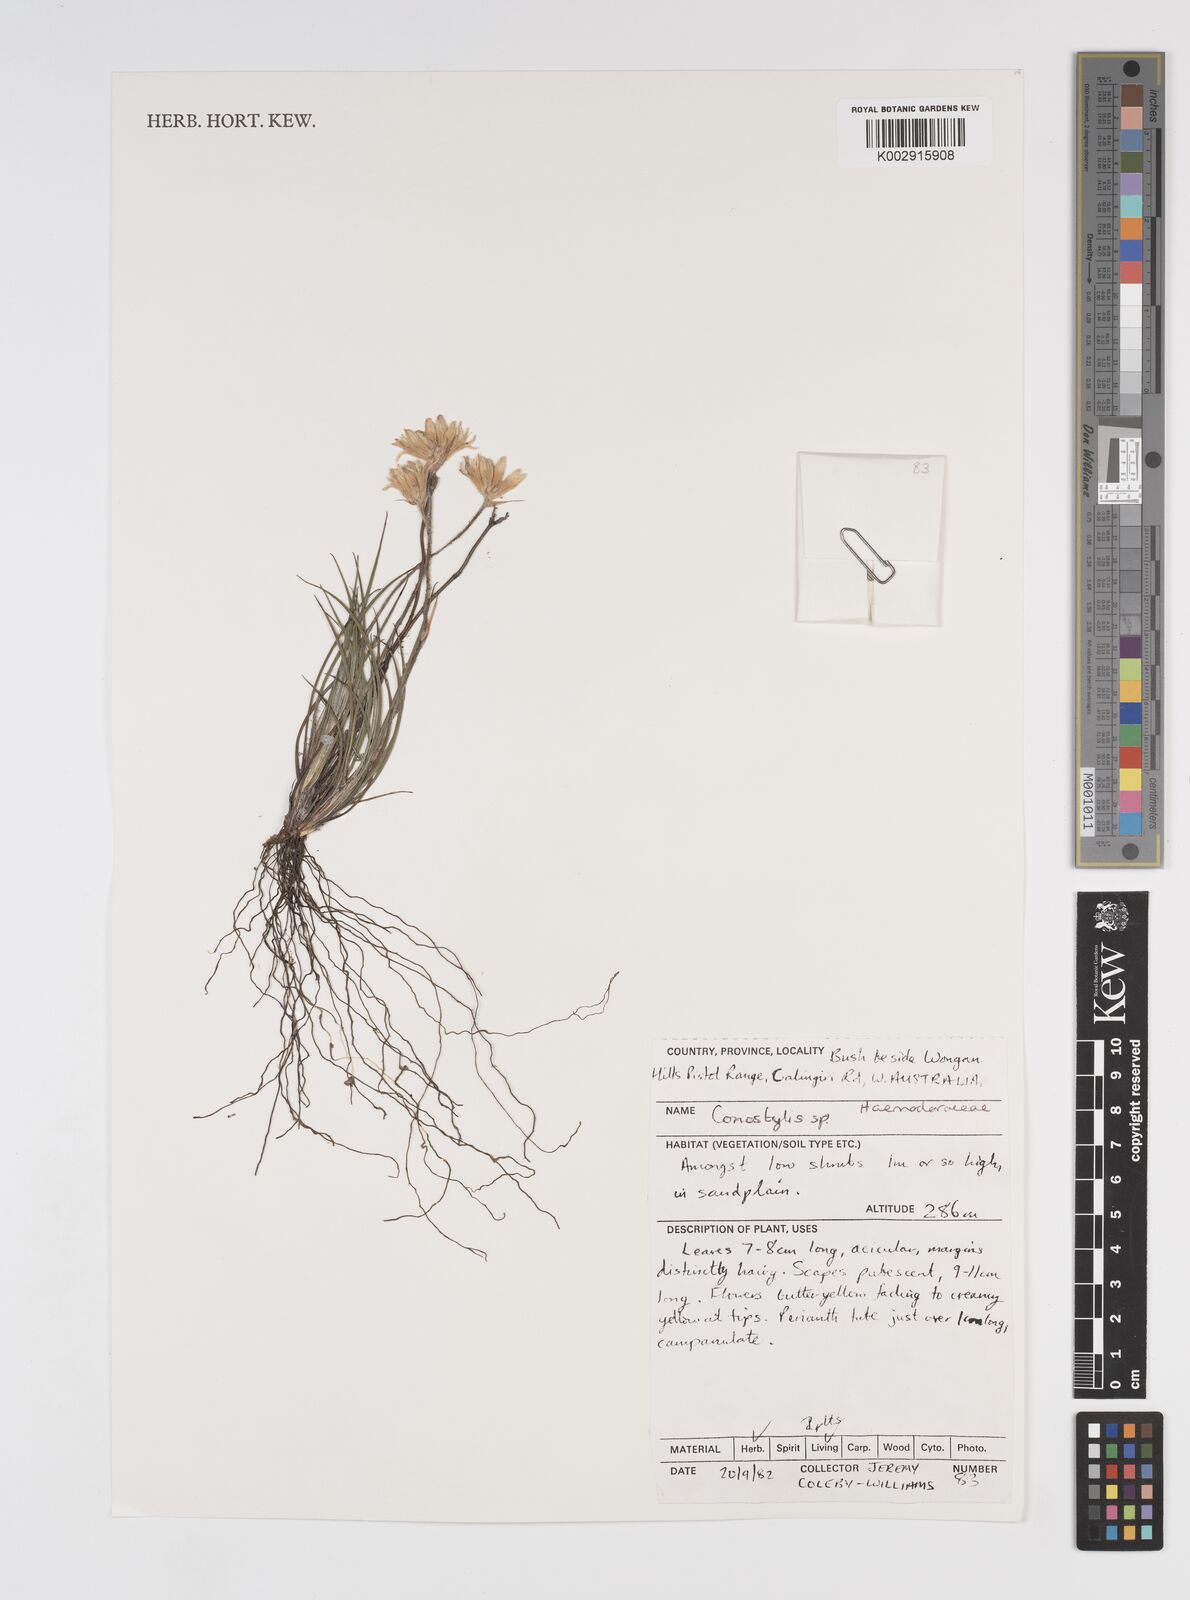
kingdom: Plantae
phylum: Tracheophyta
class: Liliopsida
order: Commelinales
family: Haemodoraceae
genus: Conostylis
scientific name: Conostylis
